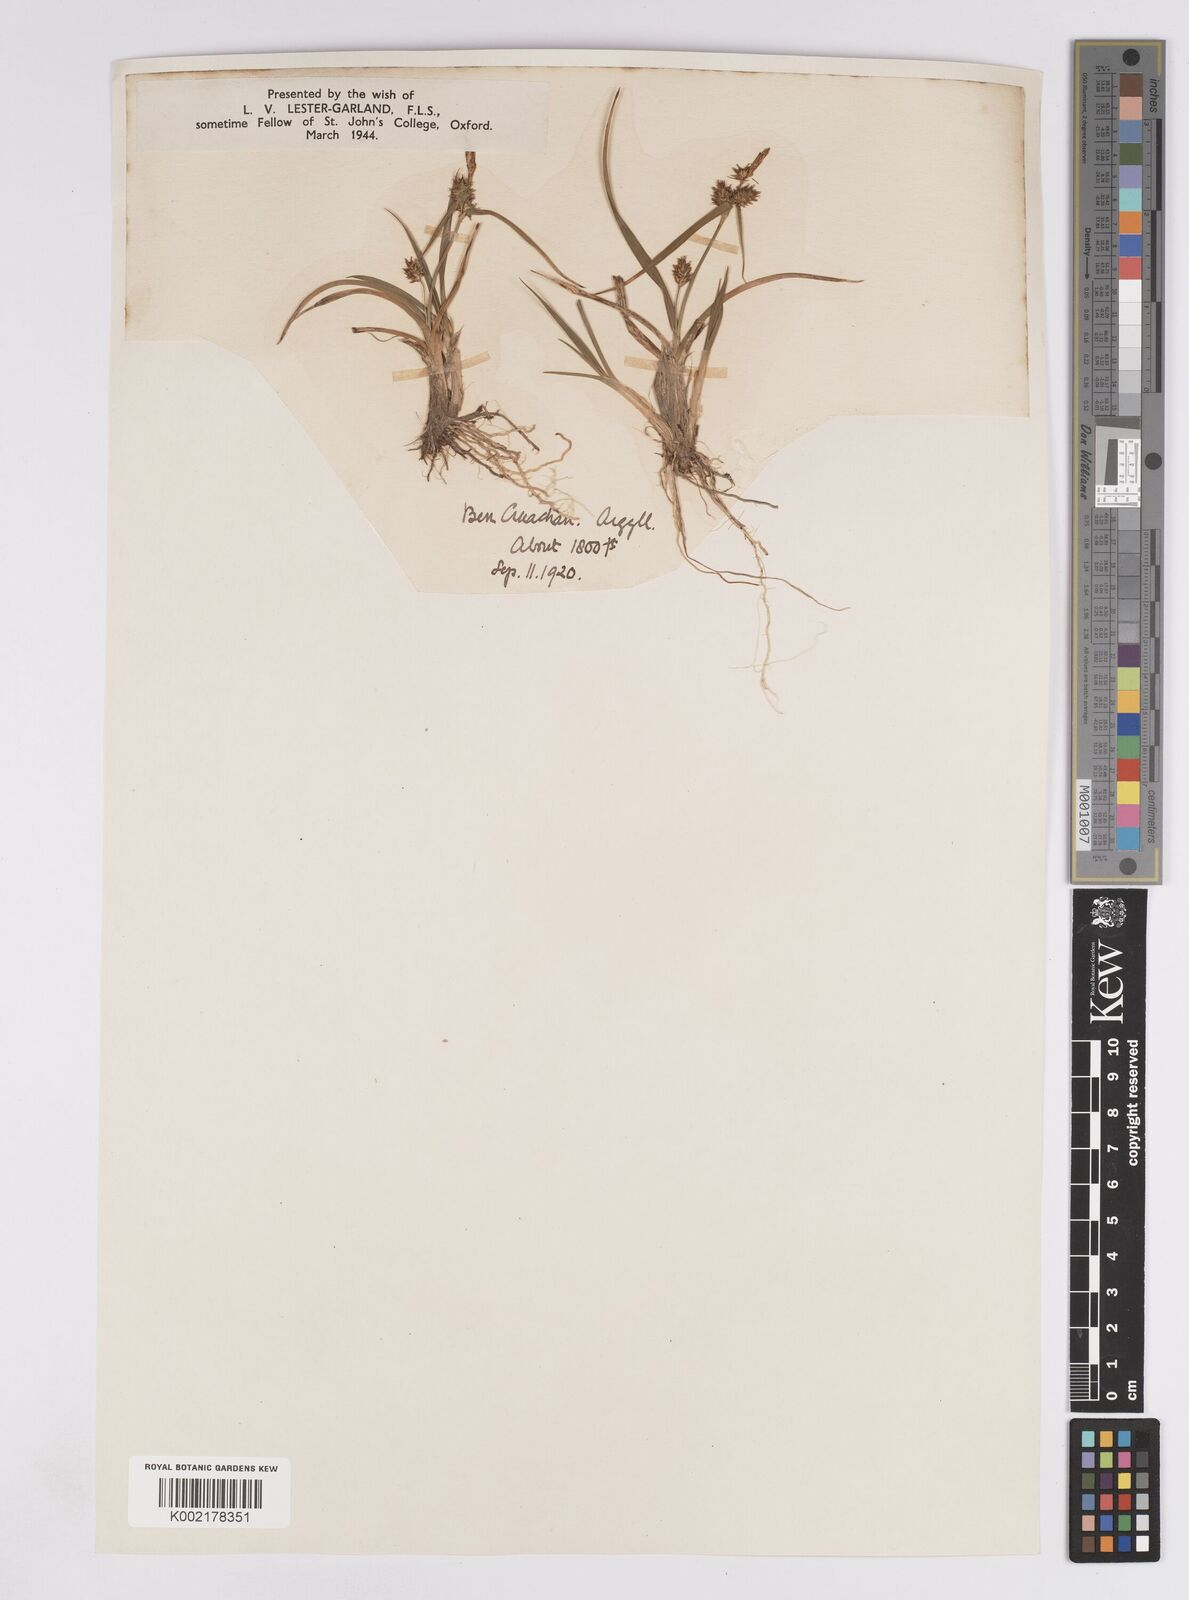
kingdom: Plantae
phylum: Tracheophyta
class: Liliopsida
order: Poales
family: Cyperaceae
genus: Carex
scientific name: Carex demissa
